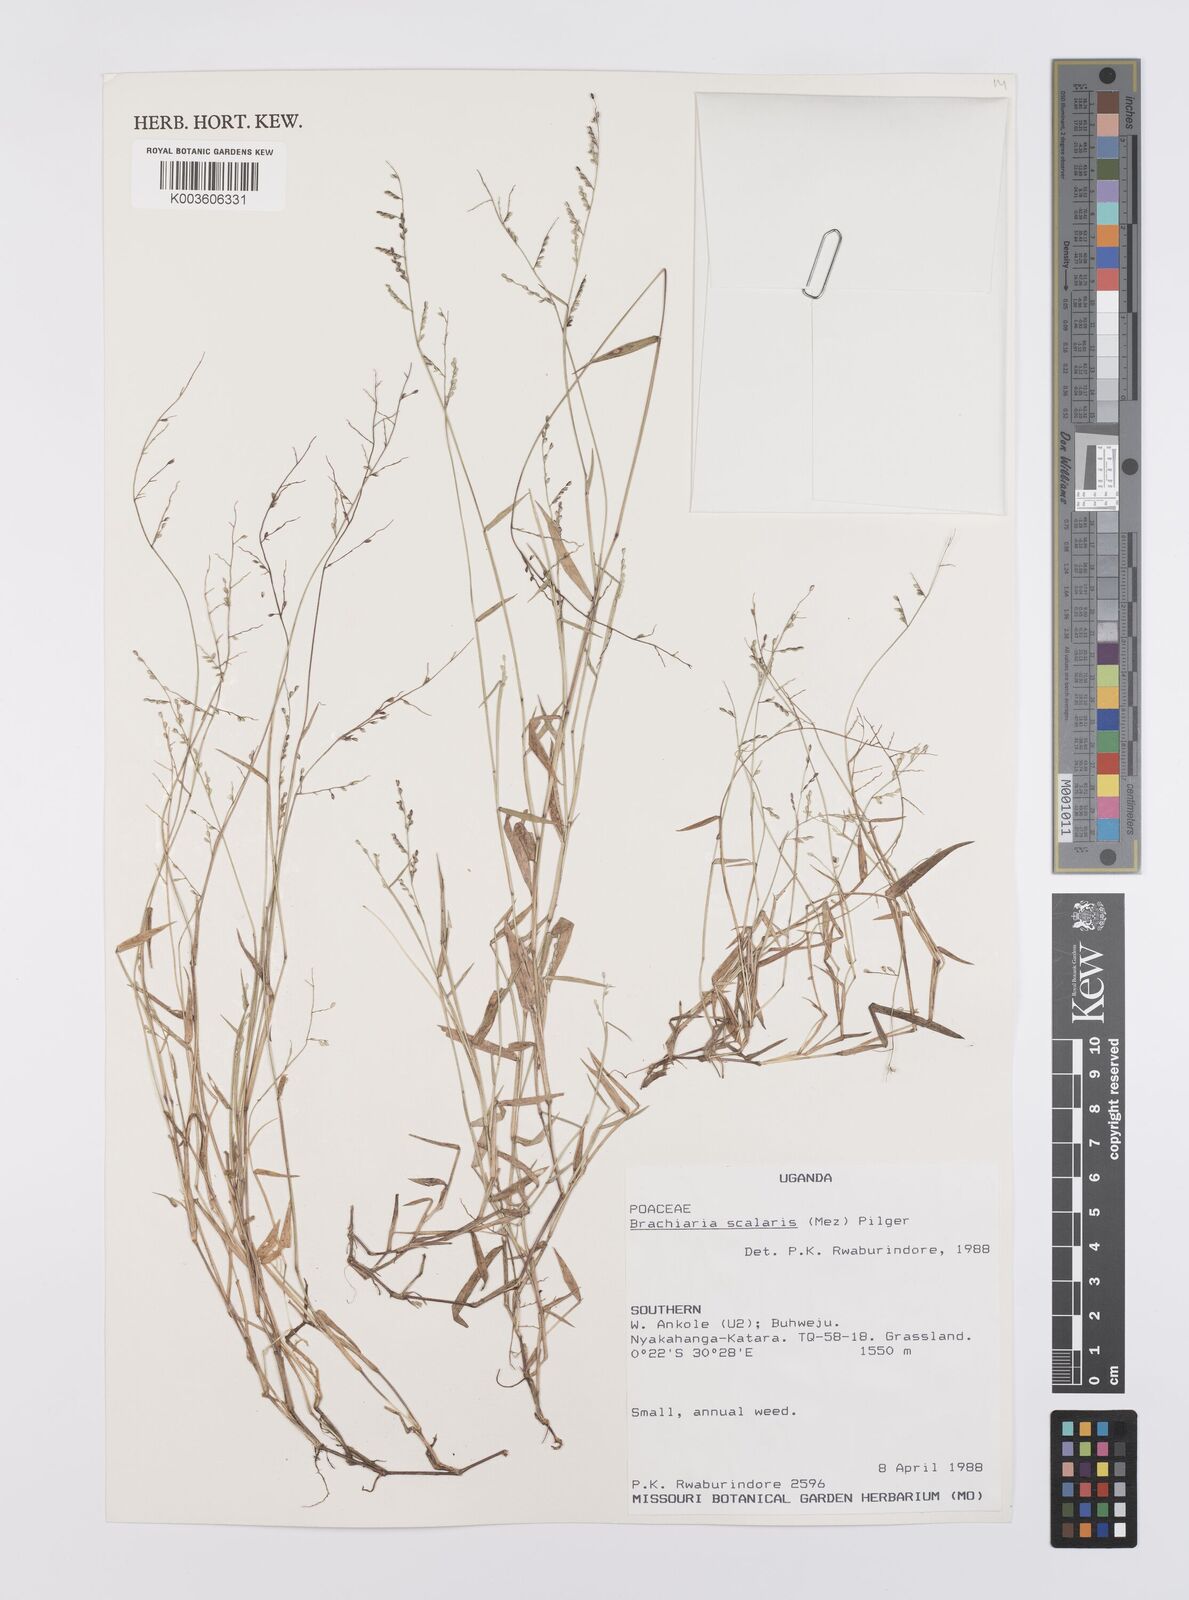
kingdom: Plantae
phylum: Tracheophyta
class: Liliopsida
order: Poales
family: Poaceae
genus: Urochloa
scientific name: Urochloa comata
